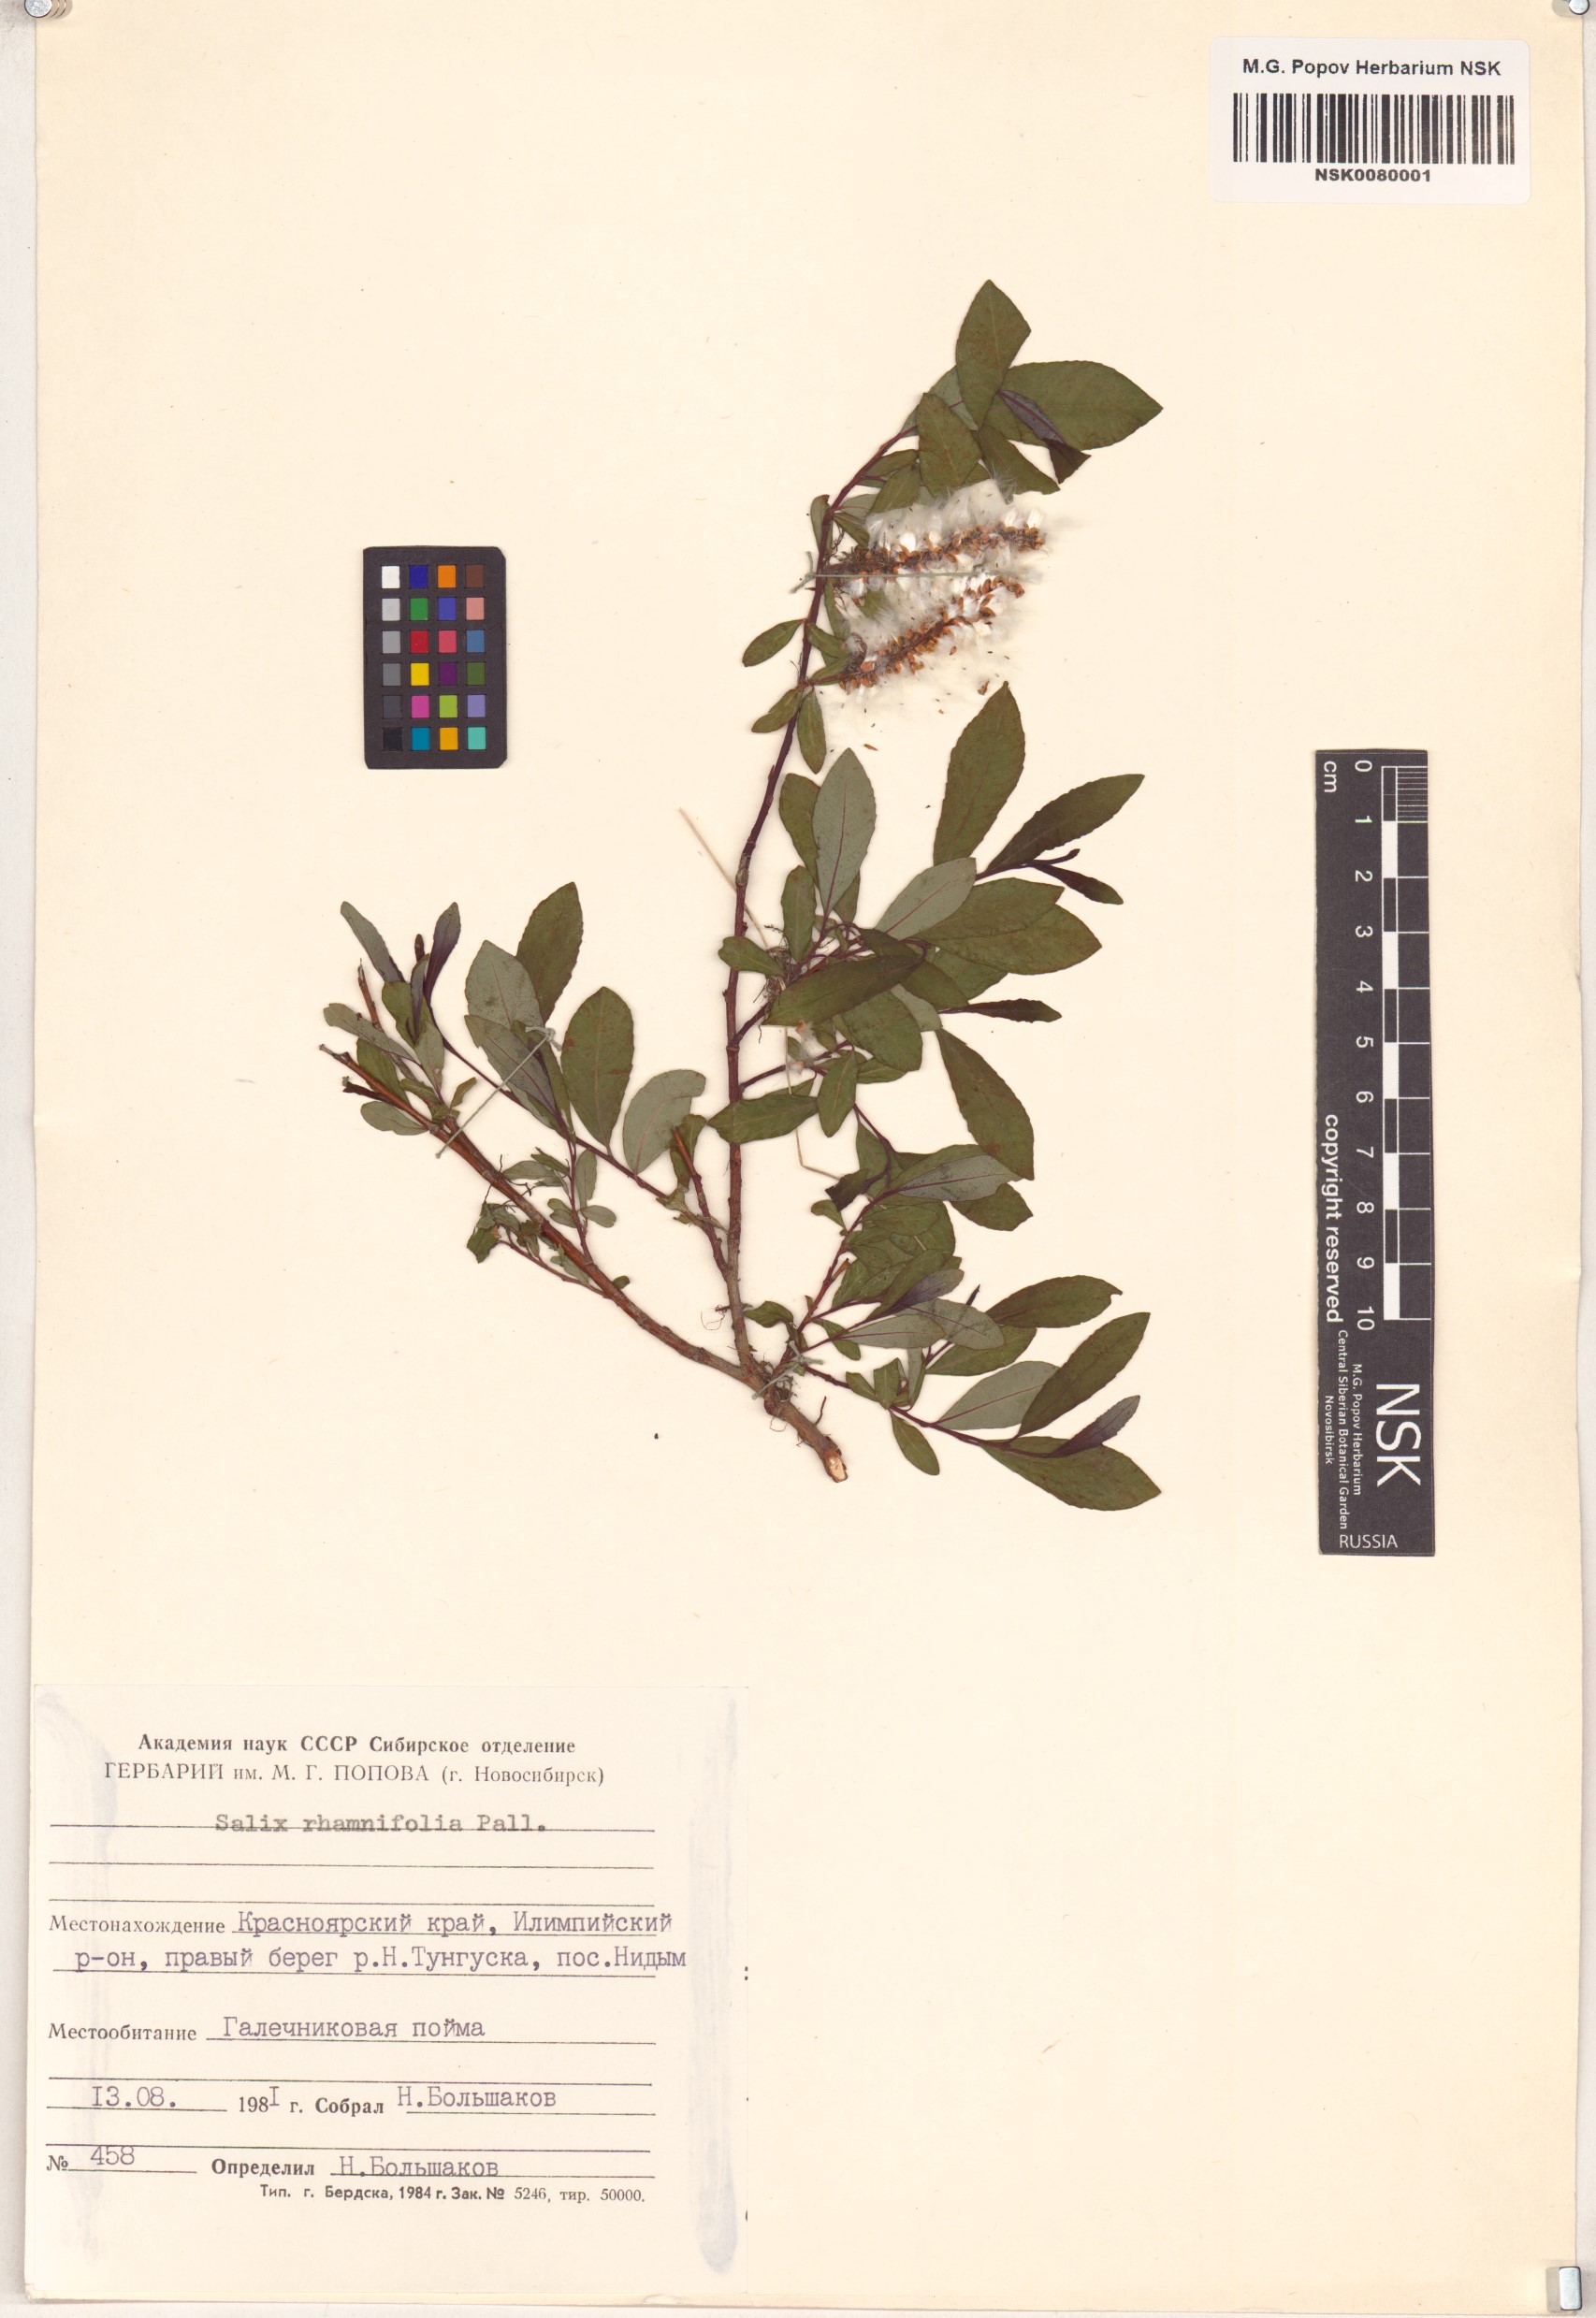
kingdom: Plantae
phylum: Tracheophyta
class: Magnoliopsida
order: Malpighiales
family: Salicaceae
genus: Salix
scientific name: Salix rhamnifolia
